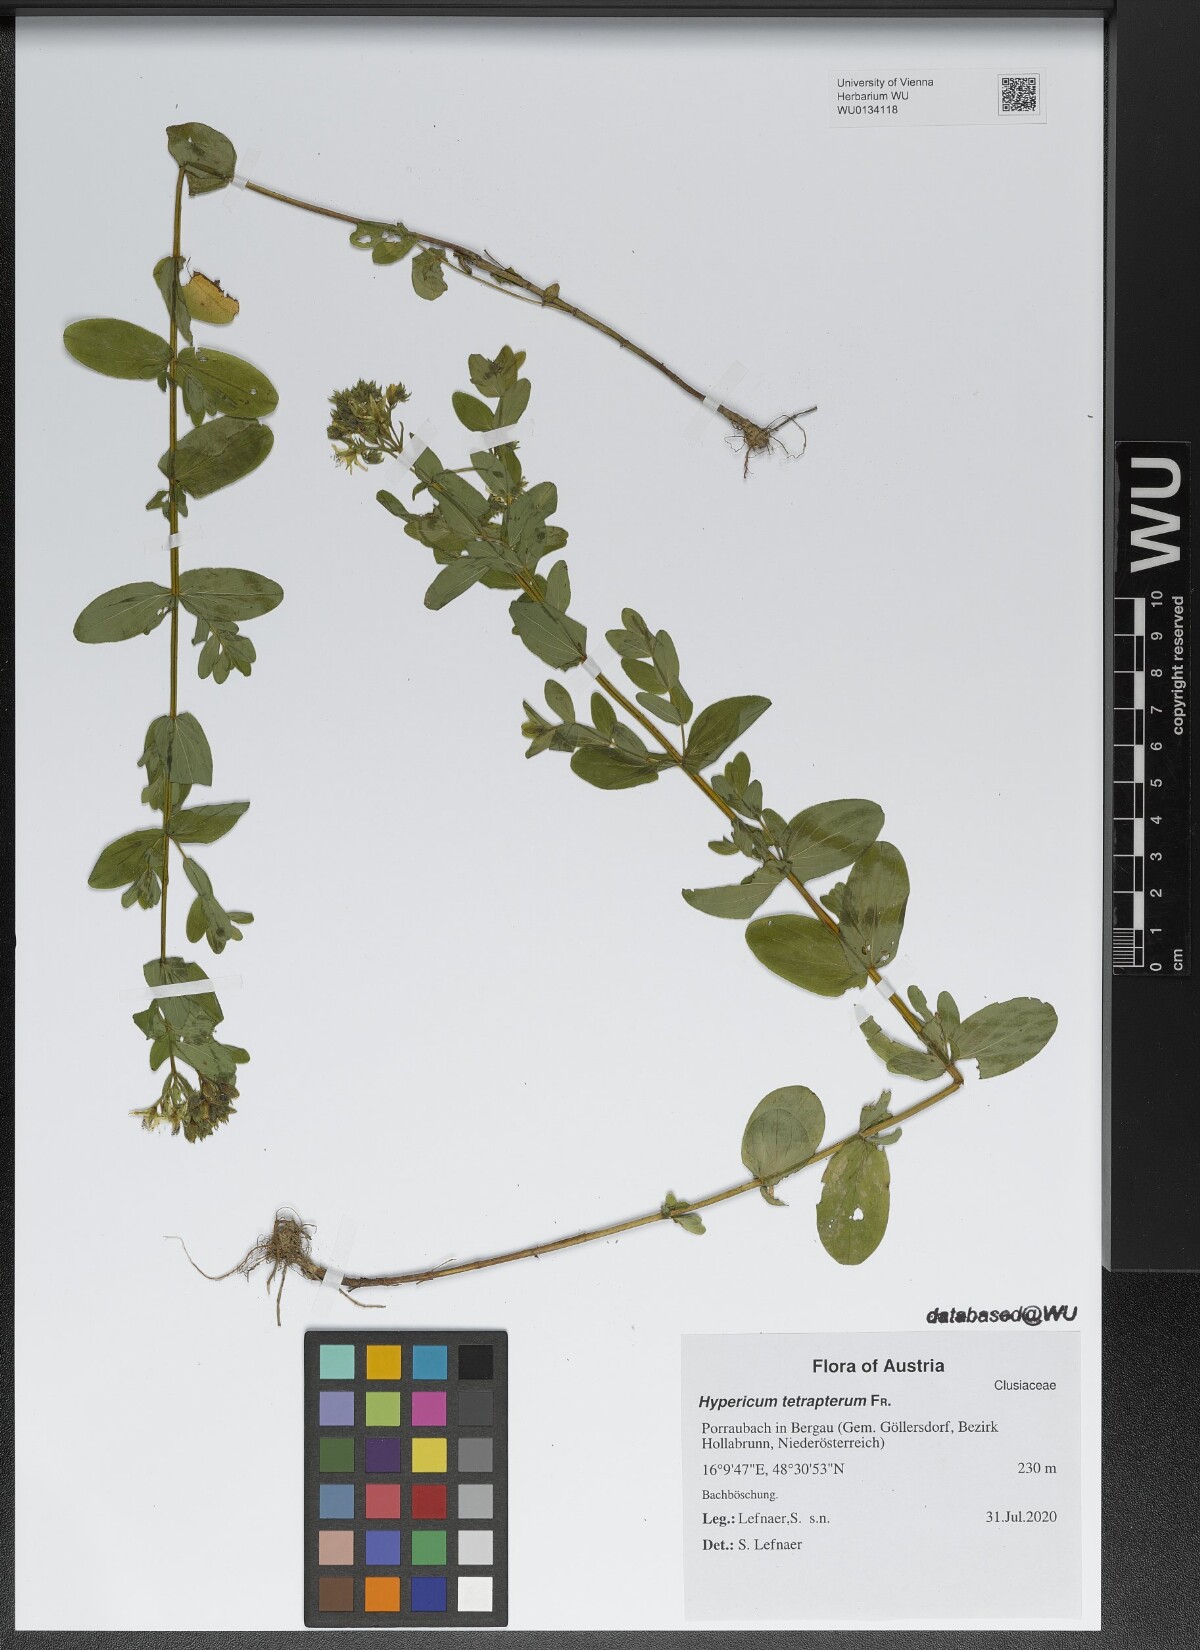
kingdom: Plantae
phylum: Tracheophyta
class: Magnoliopsida
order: Malpighiales
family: Hypericaceae
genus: Hypericum
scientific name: Hypericum tetrapterum
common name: Square-stalked st. john's-wort
